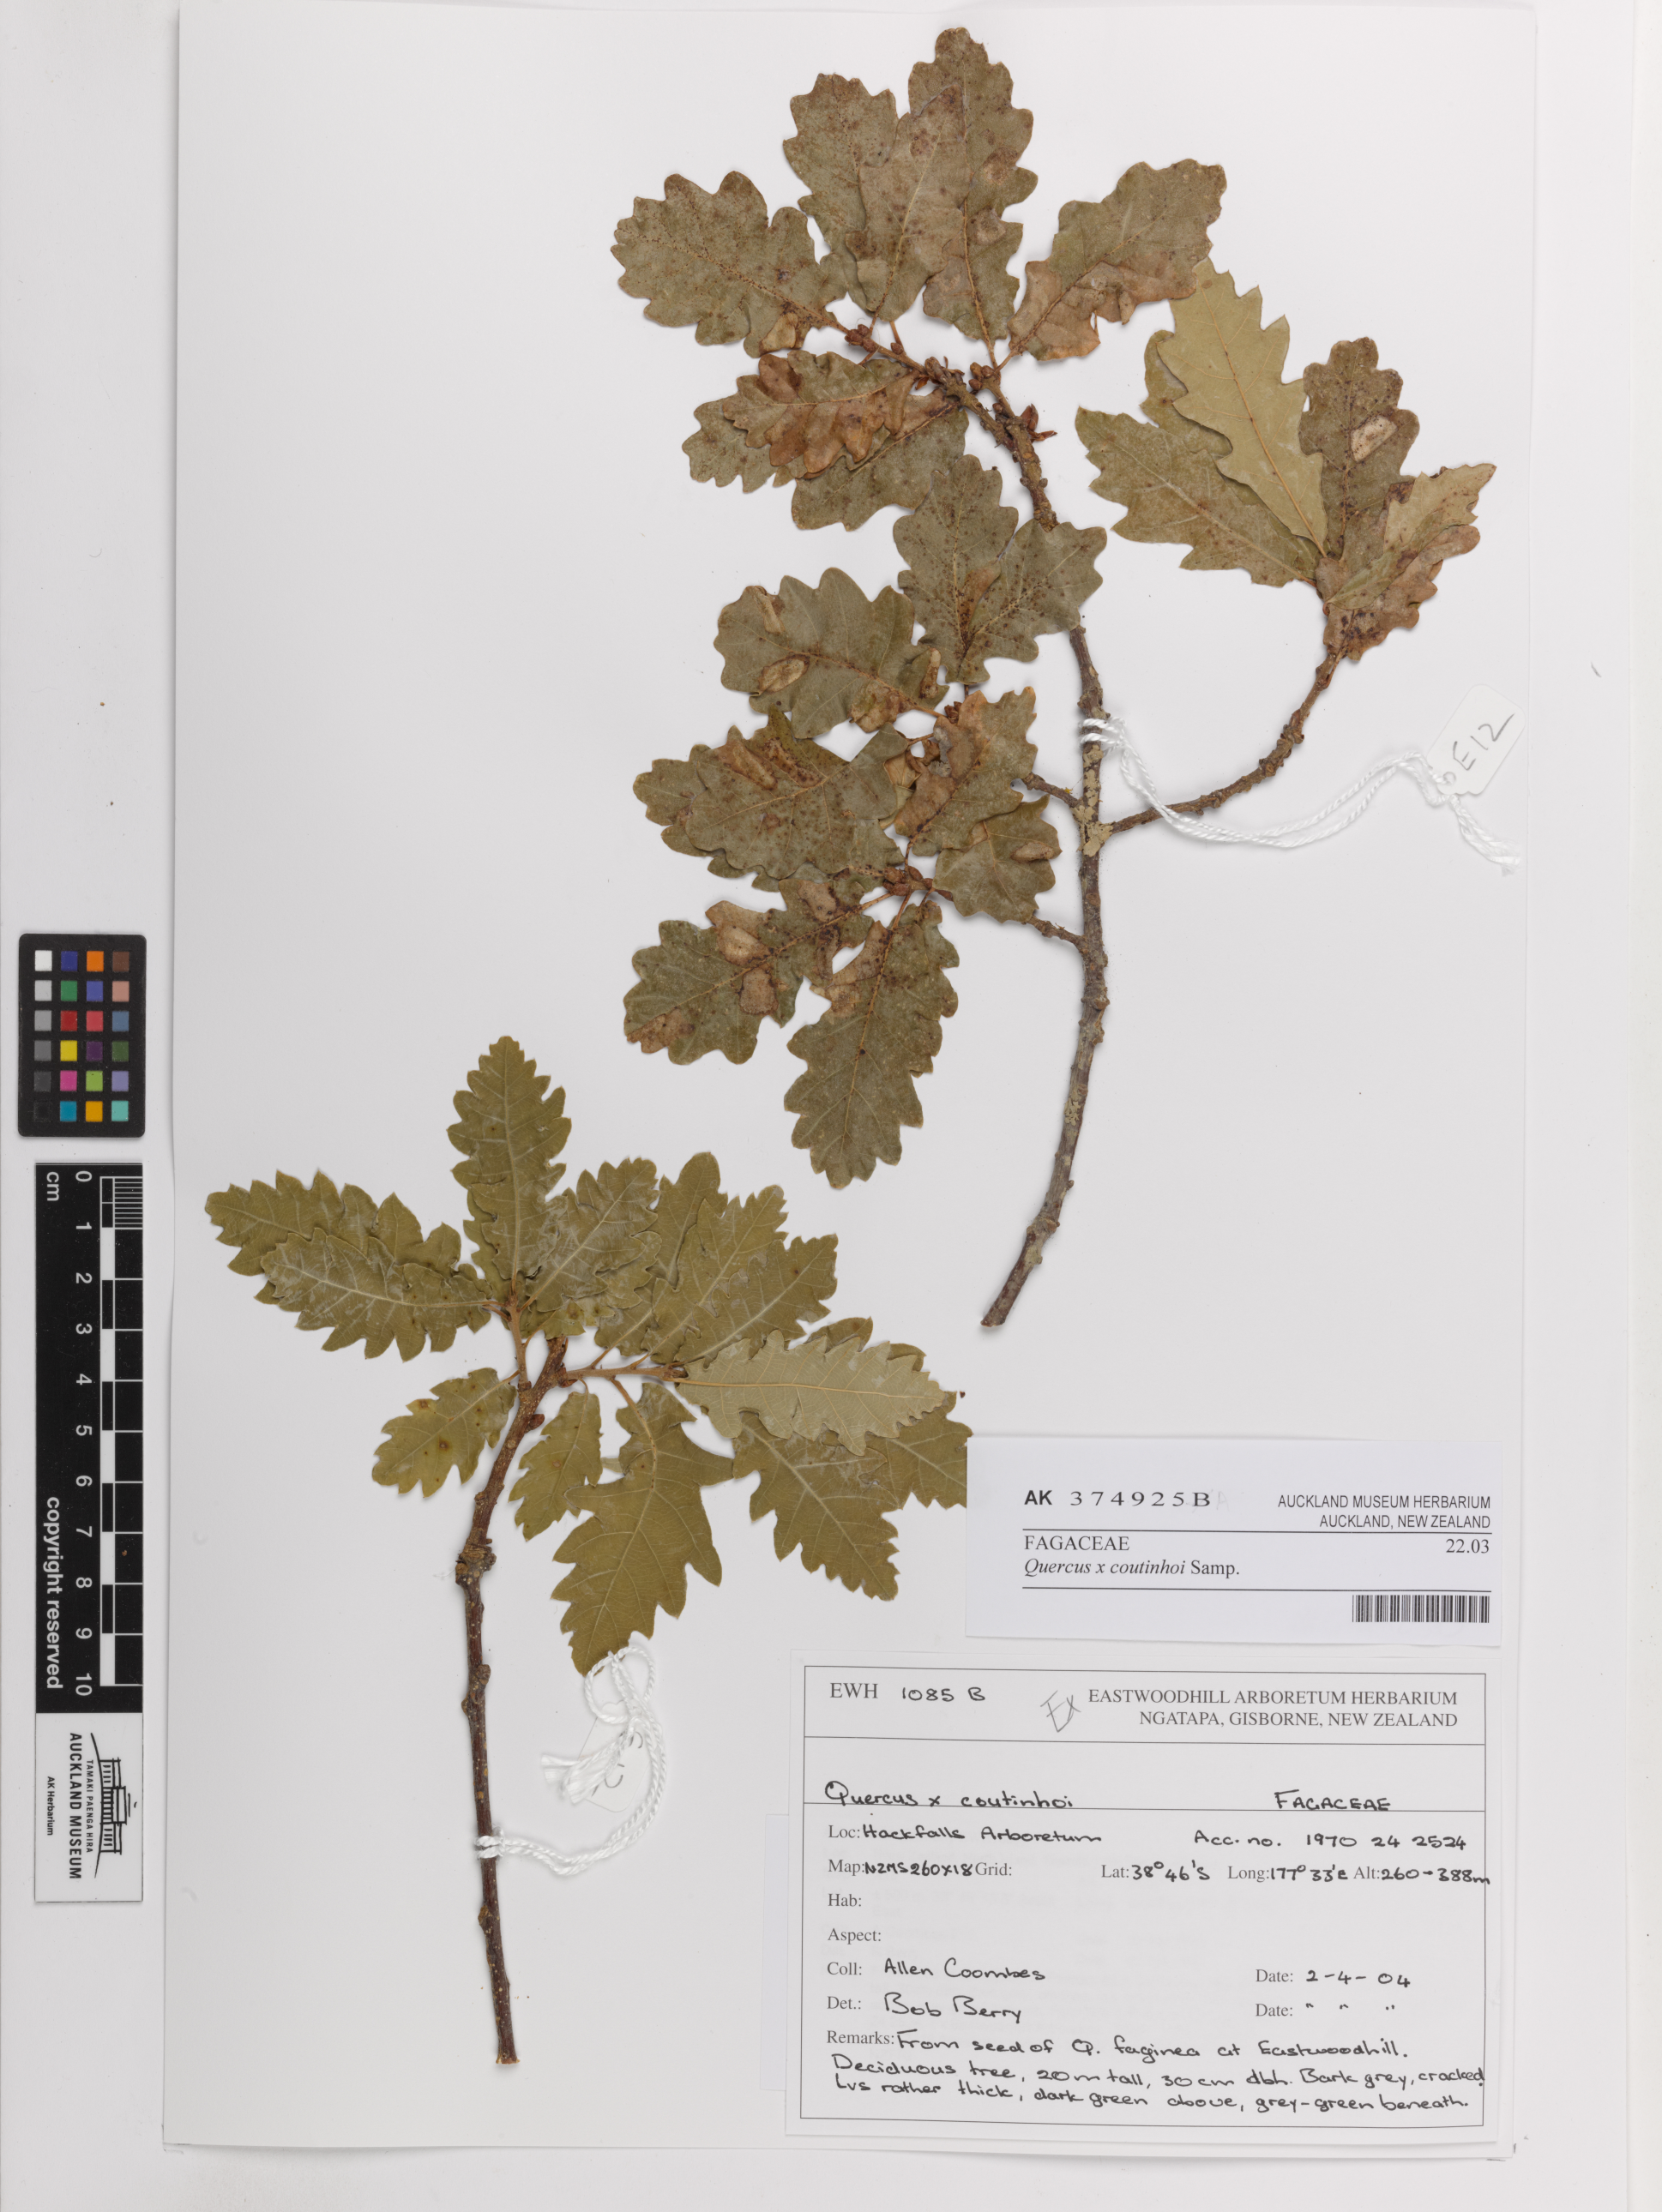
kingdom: Plantae
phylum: Tracheophyta
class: Magnoliopsida
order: Fagales
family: Fagaceae
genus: Quercus
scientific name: Quercus coutinhoi
